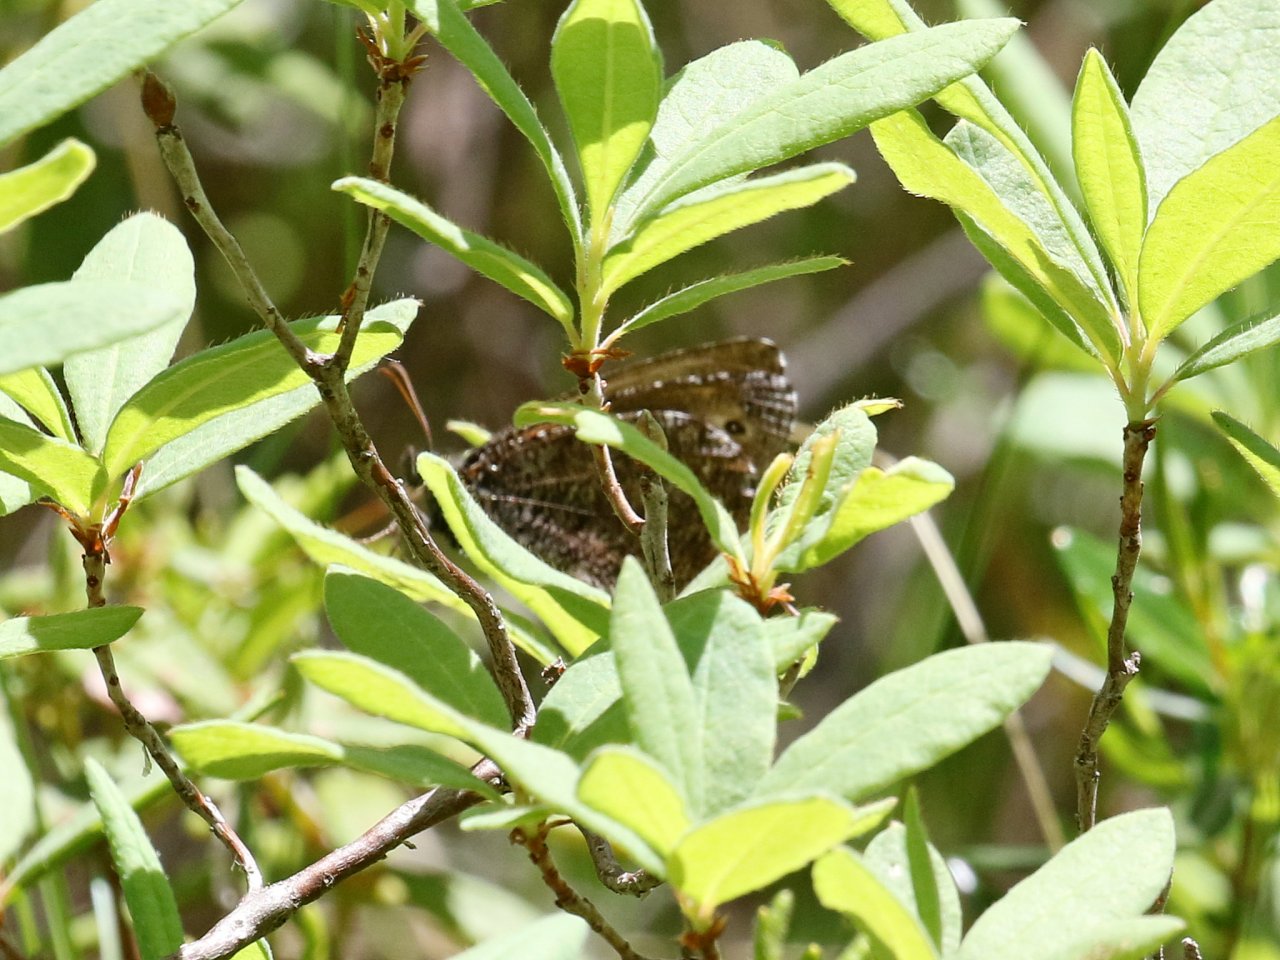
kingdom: Animalia
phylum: Arthropoda
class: Insecta
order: Lepidoptera
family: Nymphalidae
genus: Oeneis
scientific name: Oeneis jutta
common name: Jutta Arctic
